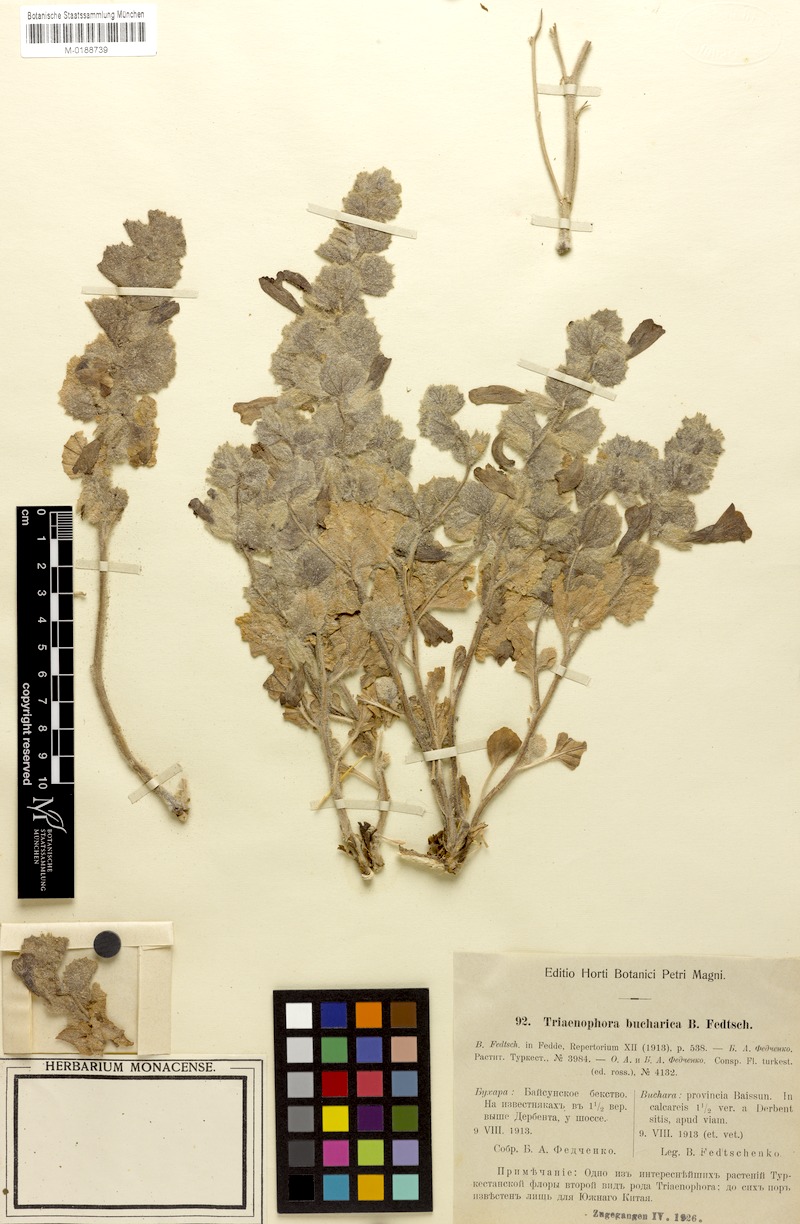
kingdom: Plantae
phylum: Tracheophyta
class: Magnoliopsida
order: Lamiales
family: Rehmanniaceae
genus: Triaenophora
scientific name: Triaenophora bucharica
